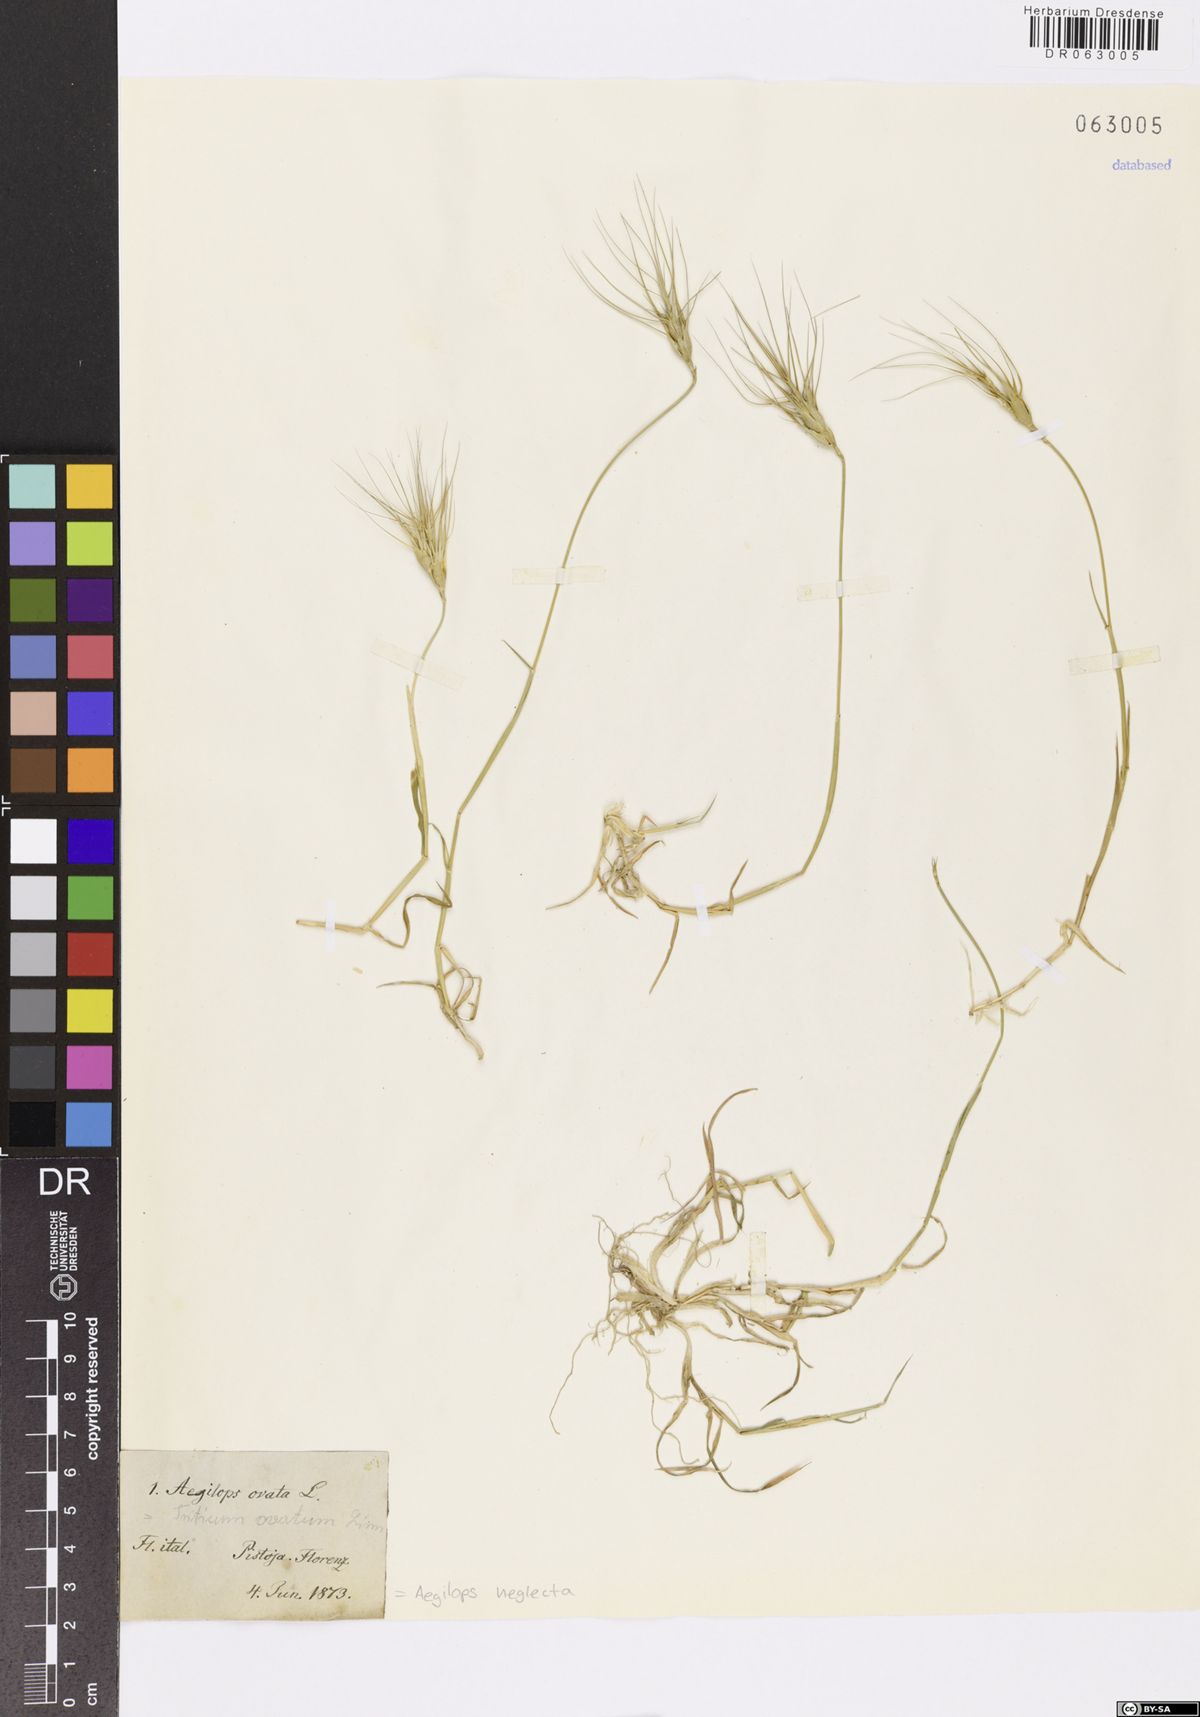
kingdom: Plantae
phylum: Tracheophyta
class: Liliopsida
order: Poales
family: Poaceae
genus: Aegilops
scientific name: Aegilops neglecta
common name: Three-awn goat grass
